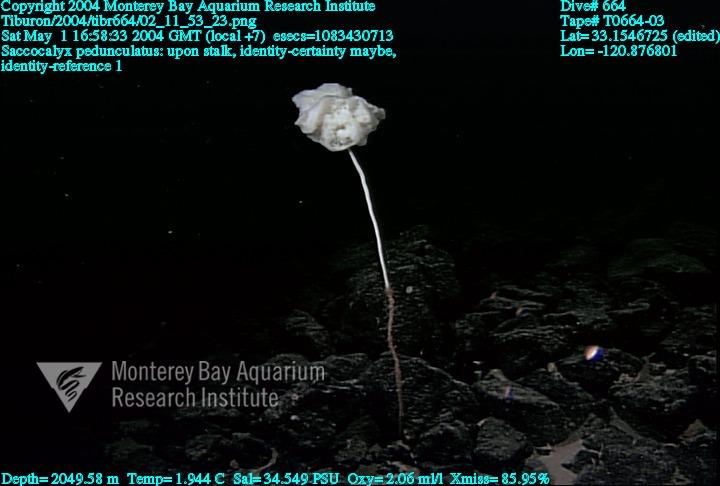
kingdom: Animalia
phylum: Porifera
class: Hexactinellida
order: Lyssacinosida
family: Euplectellidae
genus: Saccocalyx
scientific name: Saccocalyx pedunculatus
